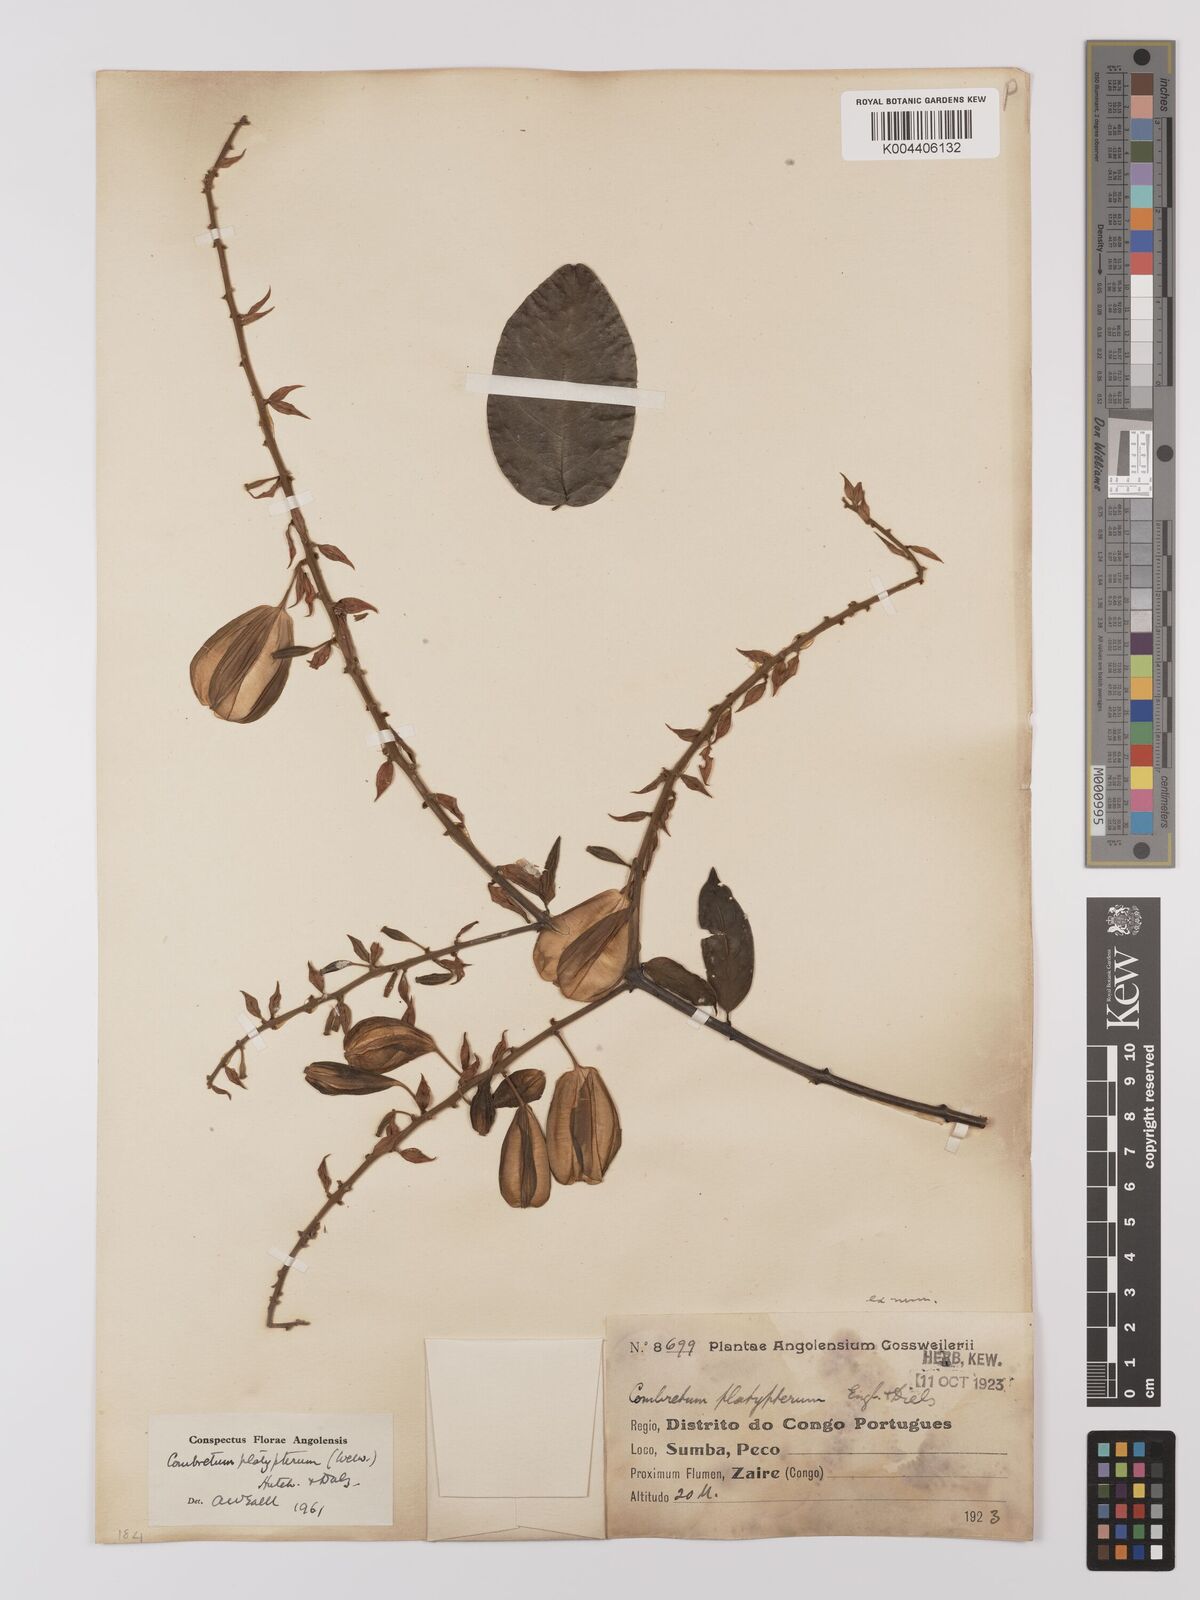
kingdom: Plantae
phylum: Tracheophyta
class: Magnoliopsida
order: Myrtales
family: Combretaceae
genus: Combretum
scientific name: Combretum platypterum
